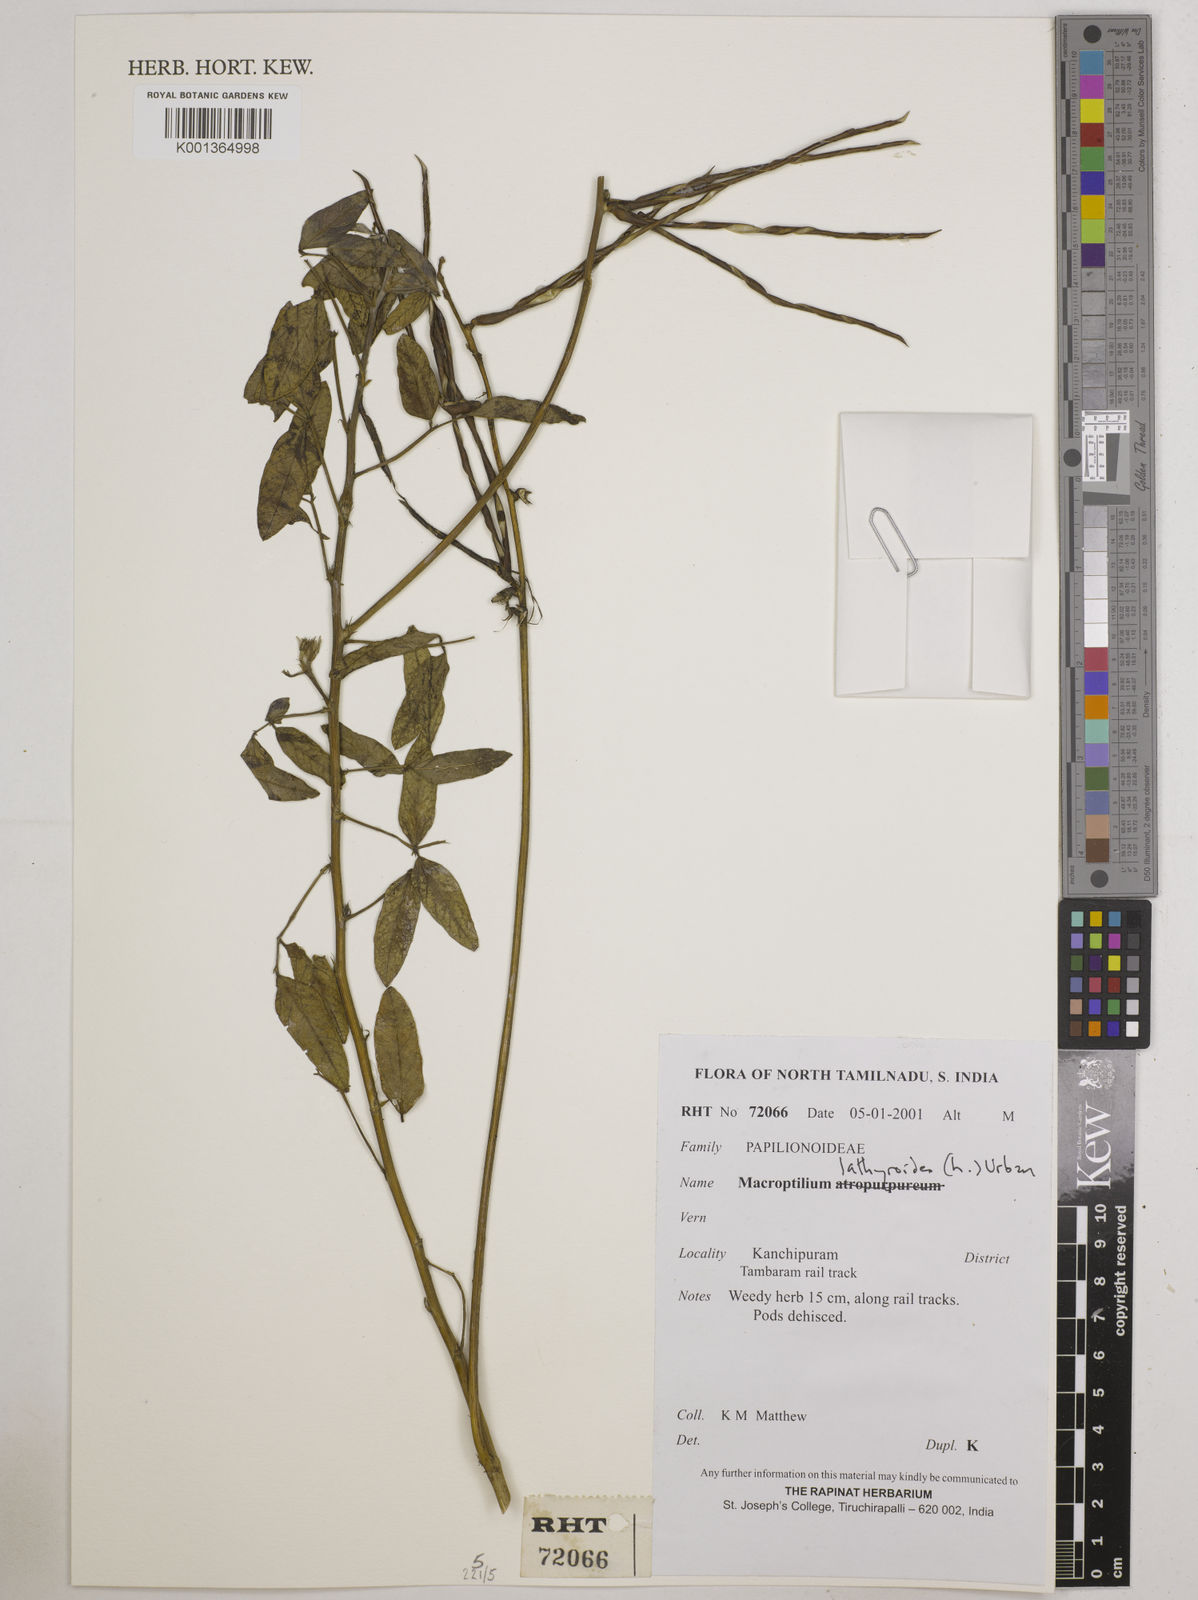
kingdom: Plantae
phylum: Tracheophyta
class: Magnoliopsida
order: Fabales
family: Fabaceae
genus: Macroptilium
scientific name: Macroptilium lathyroides
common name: Wild bushbean
